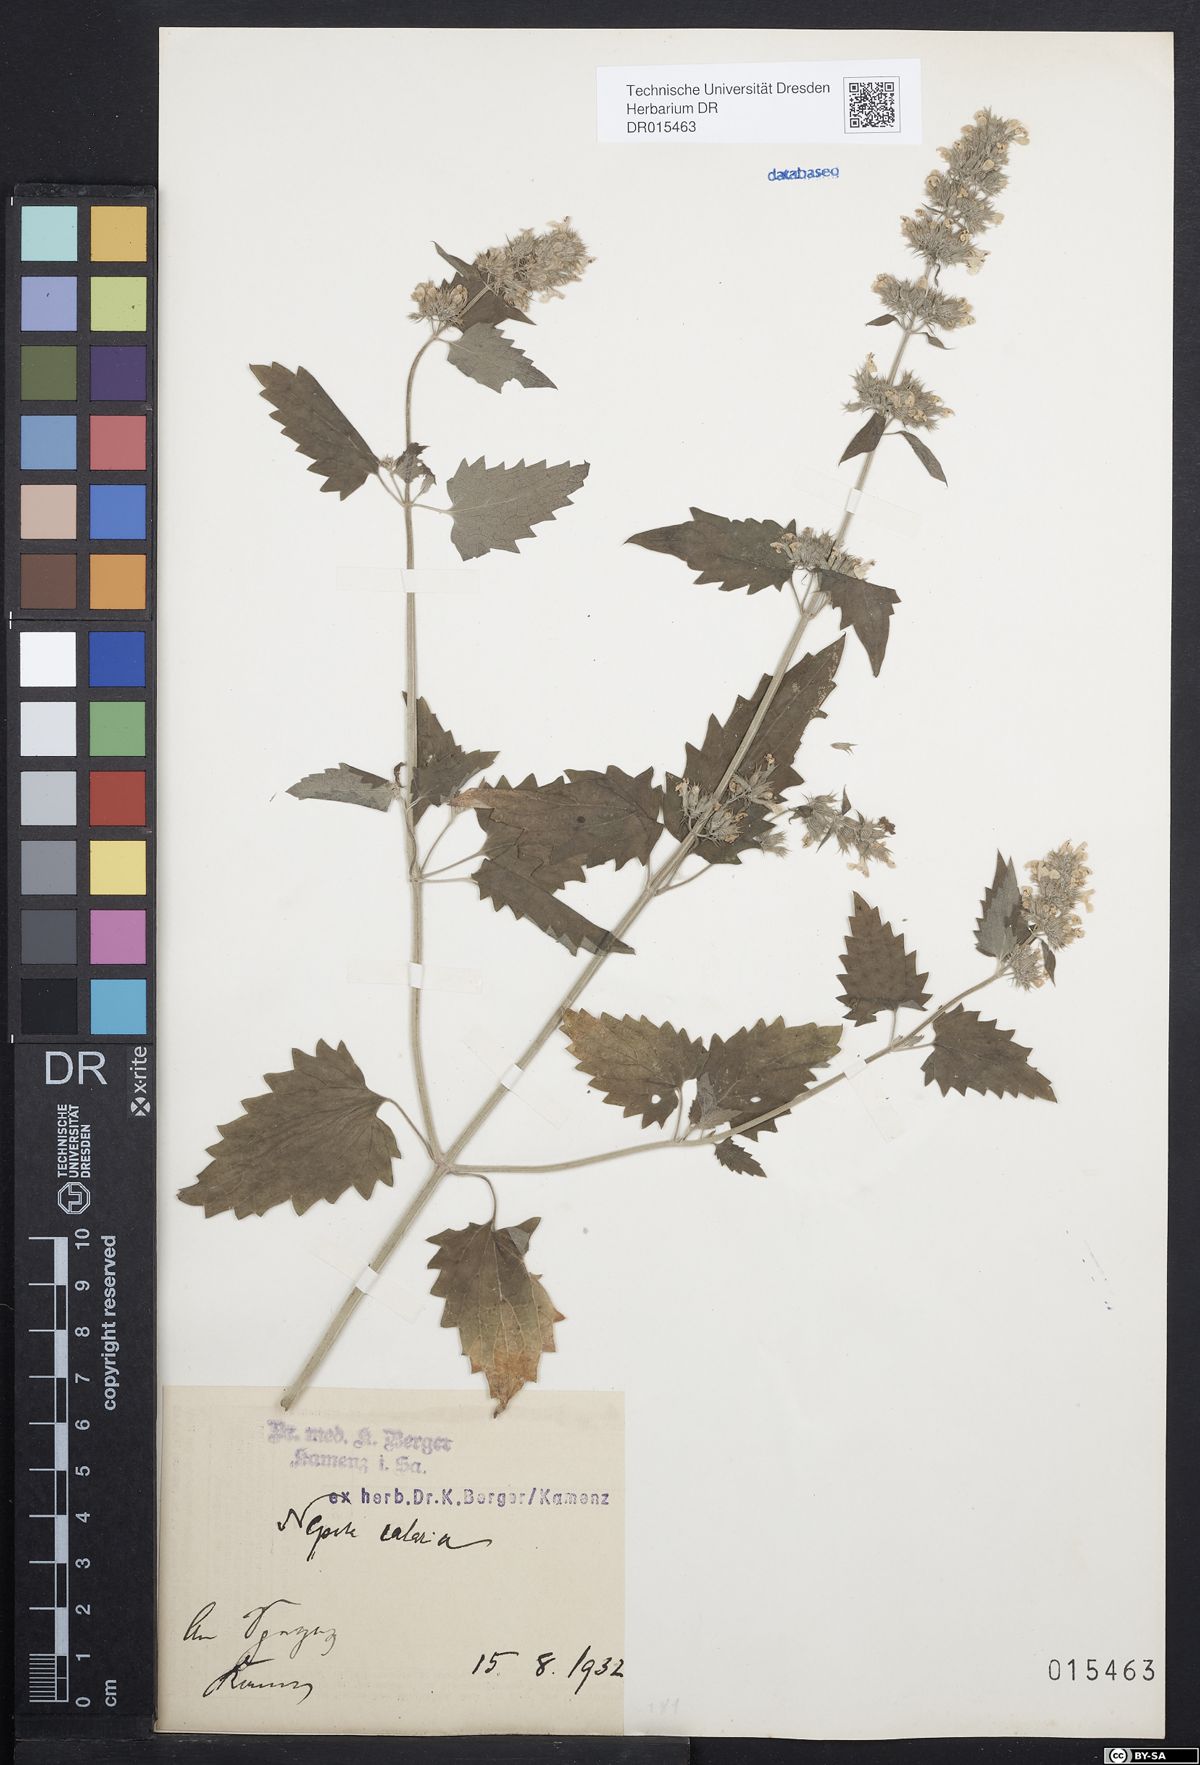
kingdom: Plantae
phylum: Tracheophyta
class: Magnoliopsida
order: Lamiales
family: Lamiaceae
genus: Nepeta
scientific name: Nepeta cataria
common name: Catnip
